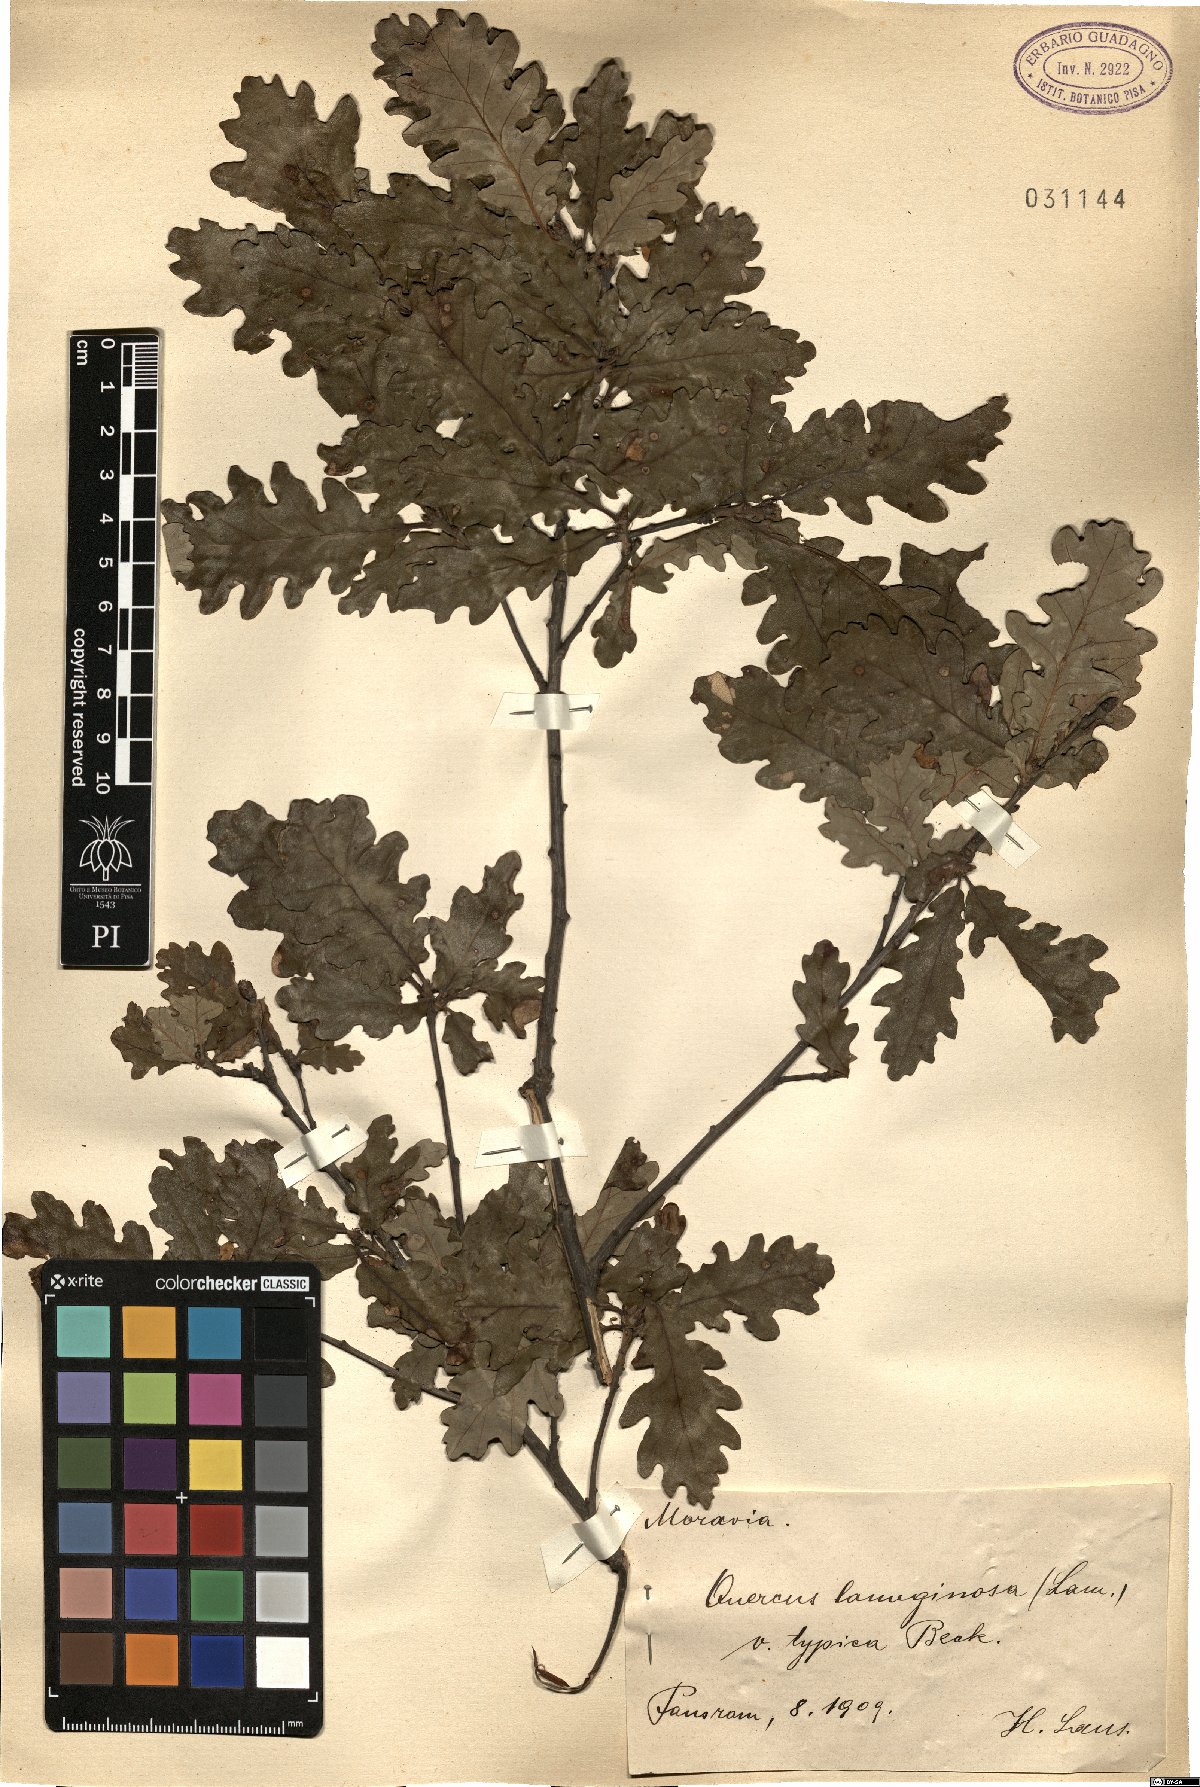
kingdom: Plantae
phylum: Tracheophyta
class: Magnoliopsida
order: Fagales
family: Fagaceae
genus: Quercus
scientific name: Quercus cerris
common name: Turkey oak
